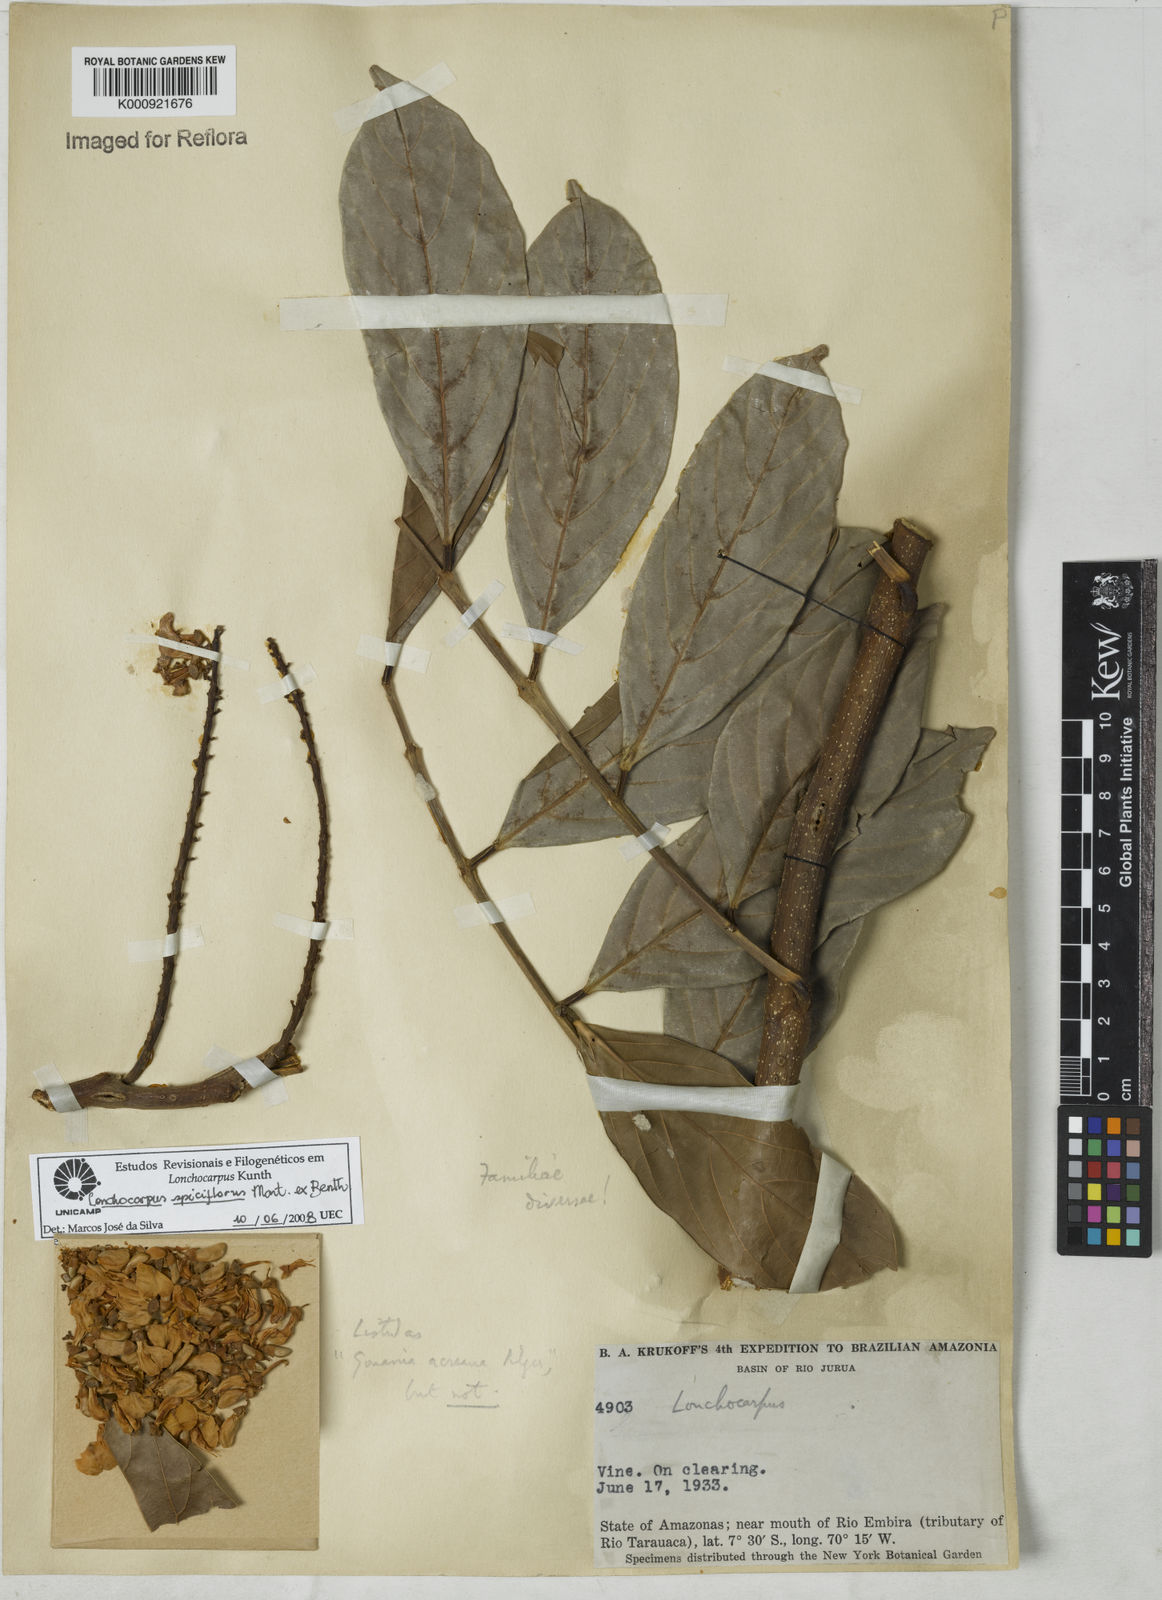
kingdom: Plantae
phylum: Tracheophyta
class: Magnoliopsida
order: Fabales
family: Fabaceae
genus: Lonchocarpus
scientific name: Lonchocarpus spiciflorus
